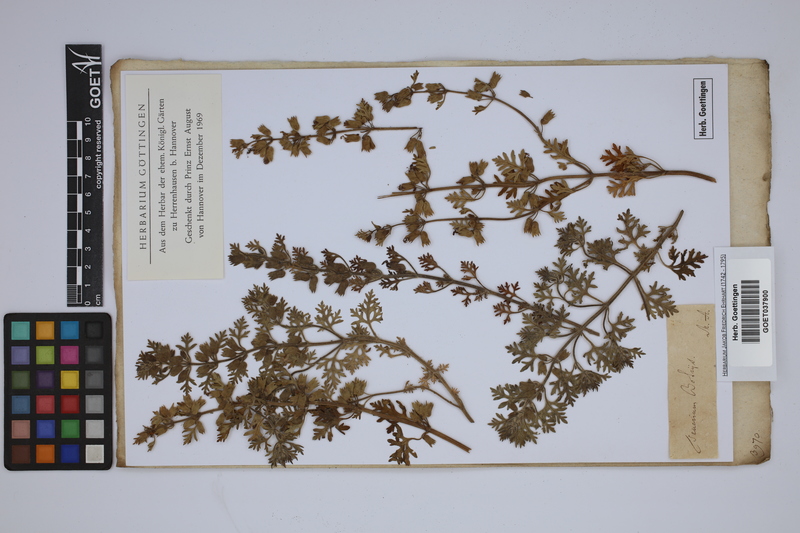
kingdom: Plantae
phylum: Tracheophyta
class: Magnoliopsida
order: Lamiales
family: Lamiaceae
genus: Teucrium
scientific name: Teucrium botrys
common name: Cut-leaved germander
